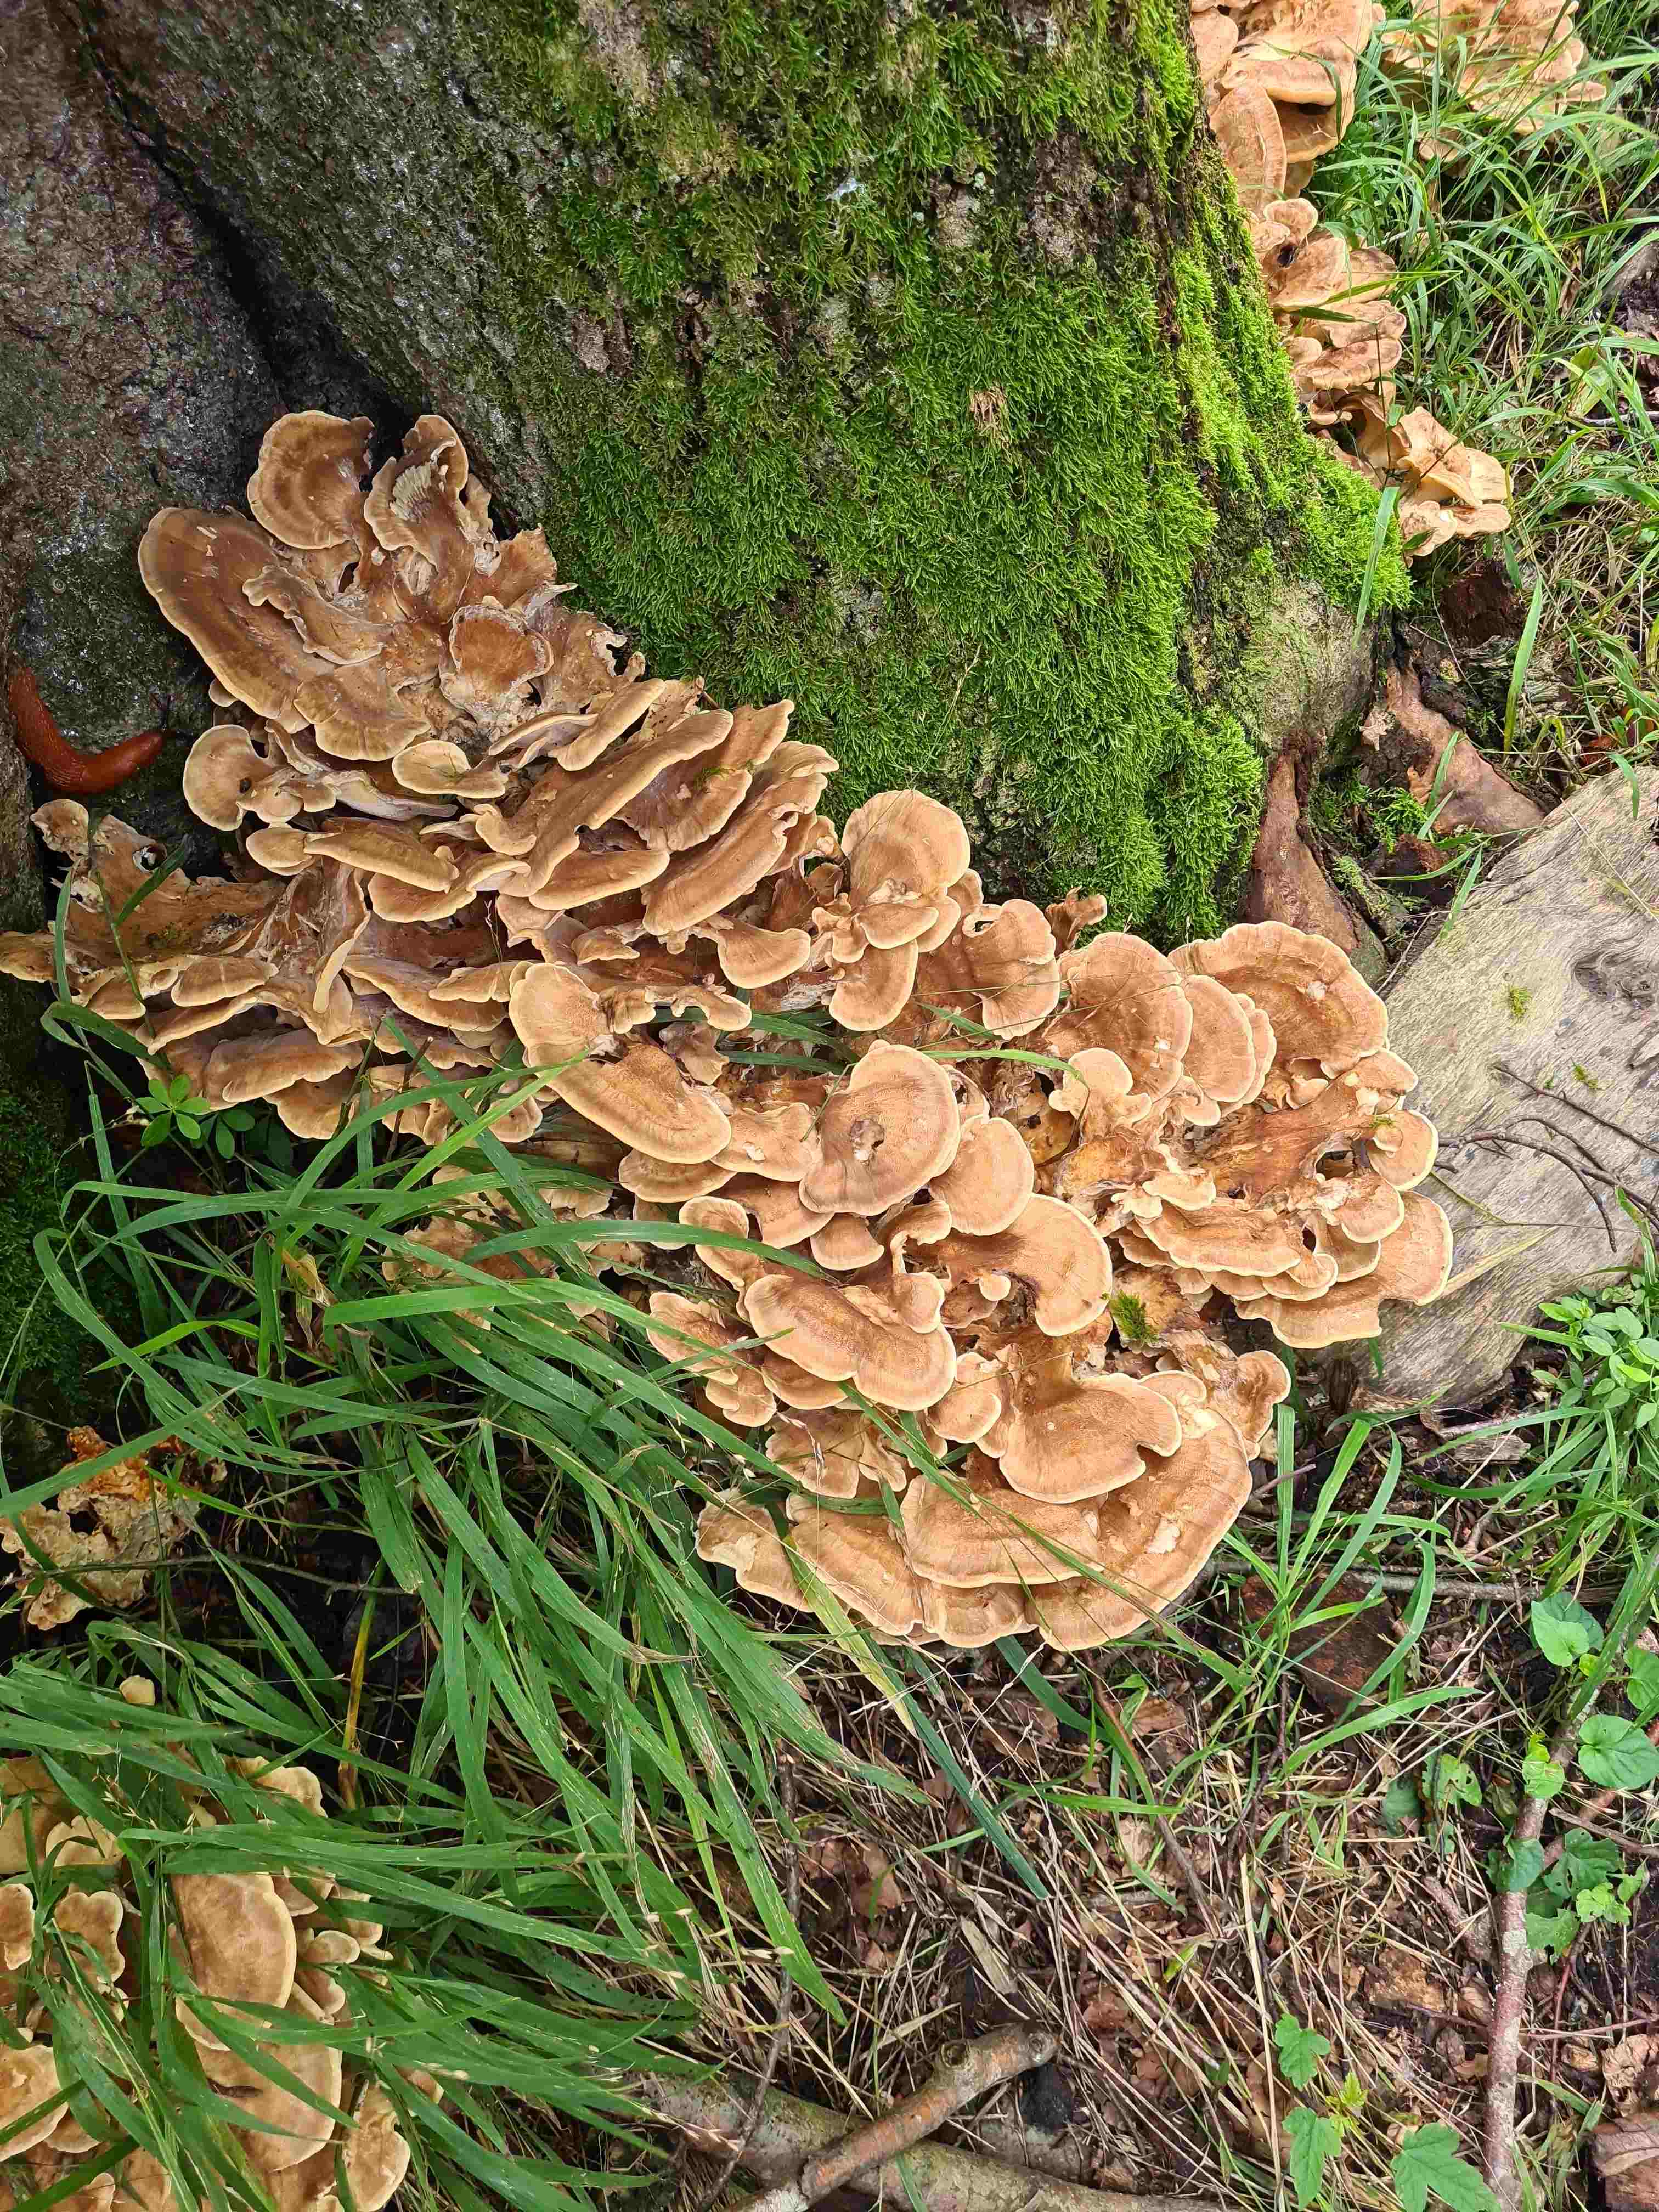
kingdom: Fungi
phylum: Basidiomycota
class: Agaricomycetes
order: Polyporales
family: Meripilaceae
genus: Meripilus
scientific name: Meripilus giganteus
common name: kæmpeporesvamp
